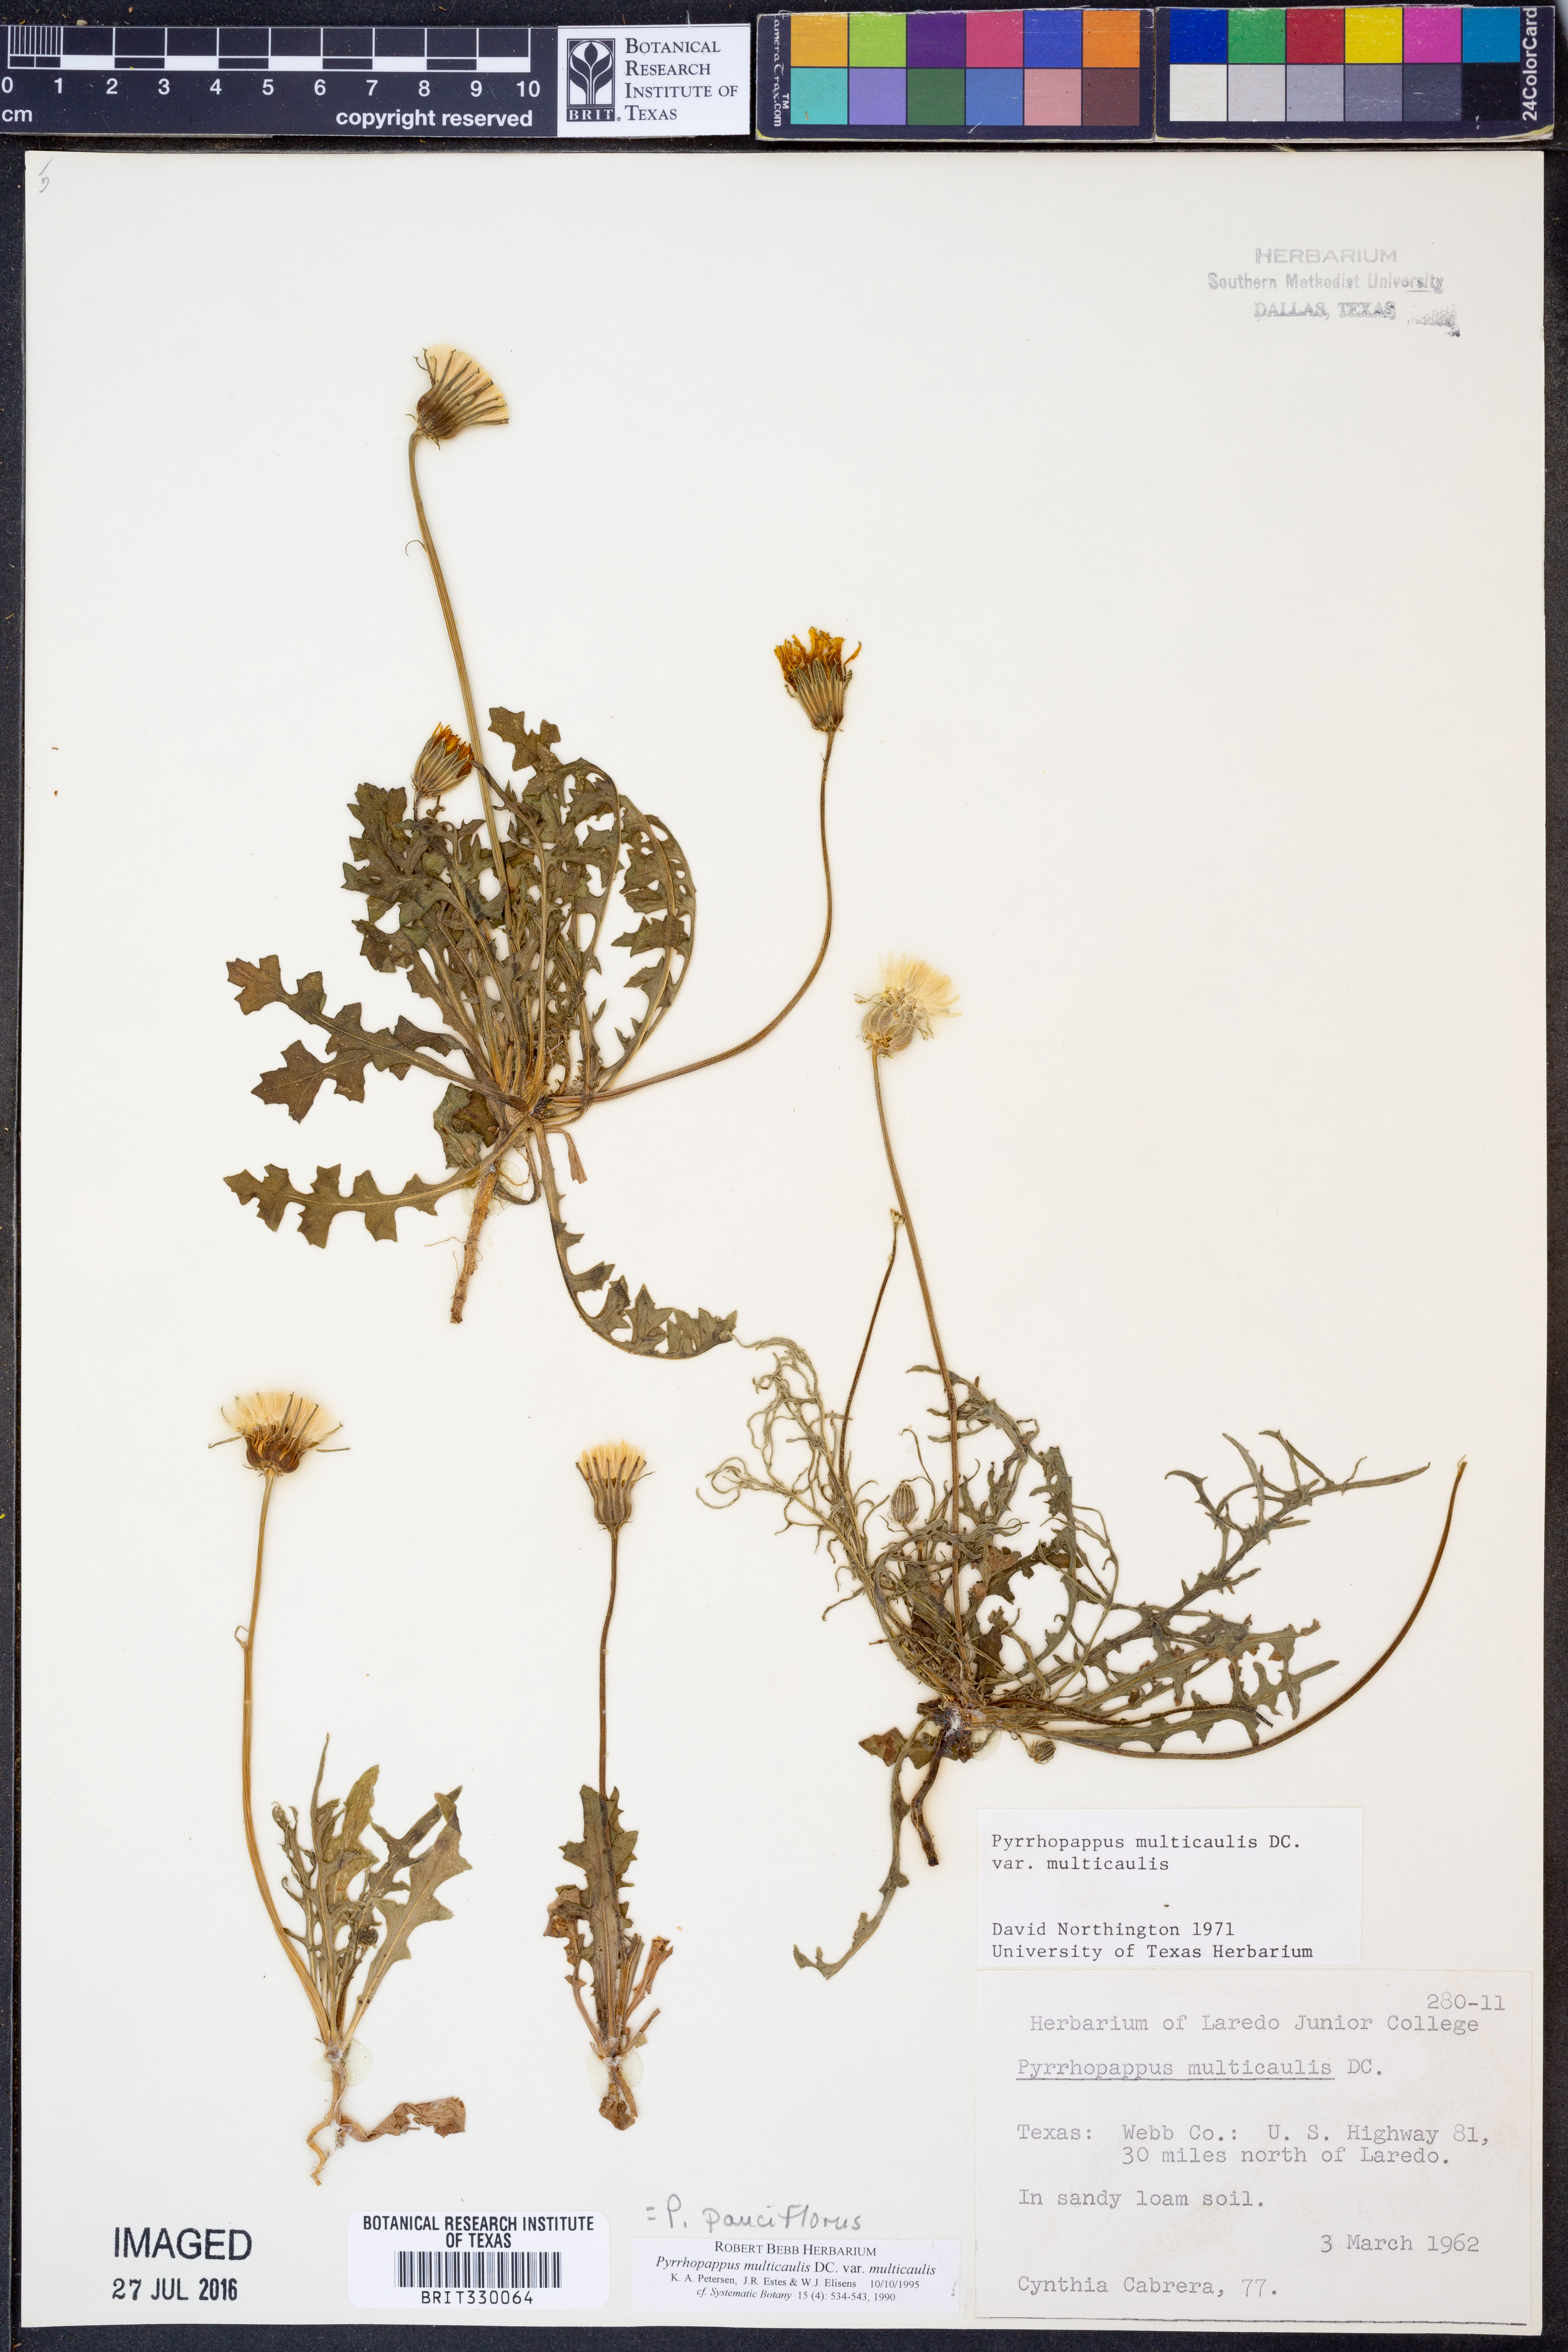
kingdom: Plantae
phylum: Tracheophyta
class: Magnoliopsida
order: Asterales
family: Asteraceae
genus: Pyrrhopappus
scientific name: Pyrrhopappus pauciflorus
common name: Texas false dandelion
